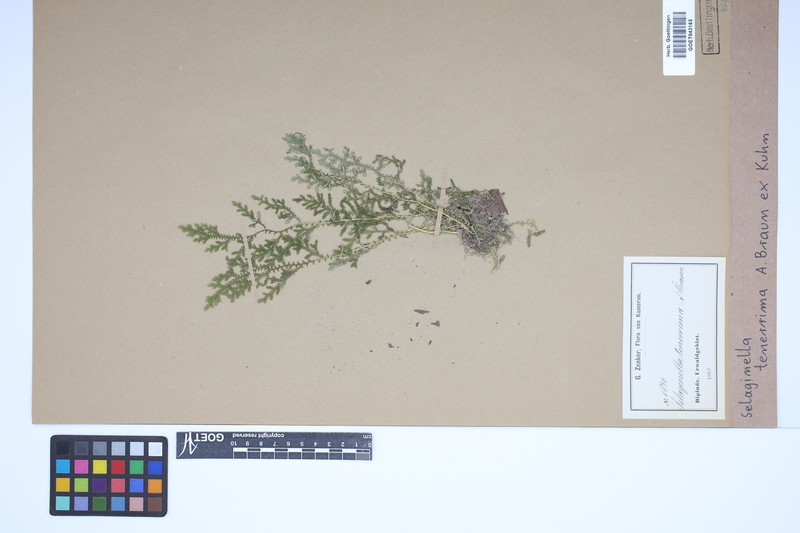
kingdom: Plantae
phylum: Tracheophyta
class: Lycopodiopsida
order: Selaginellales
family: Selaginellaceae
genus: Selaginella
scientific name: Selaginella tenerrima
